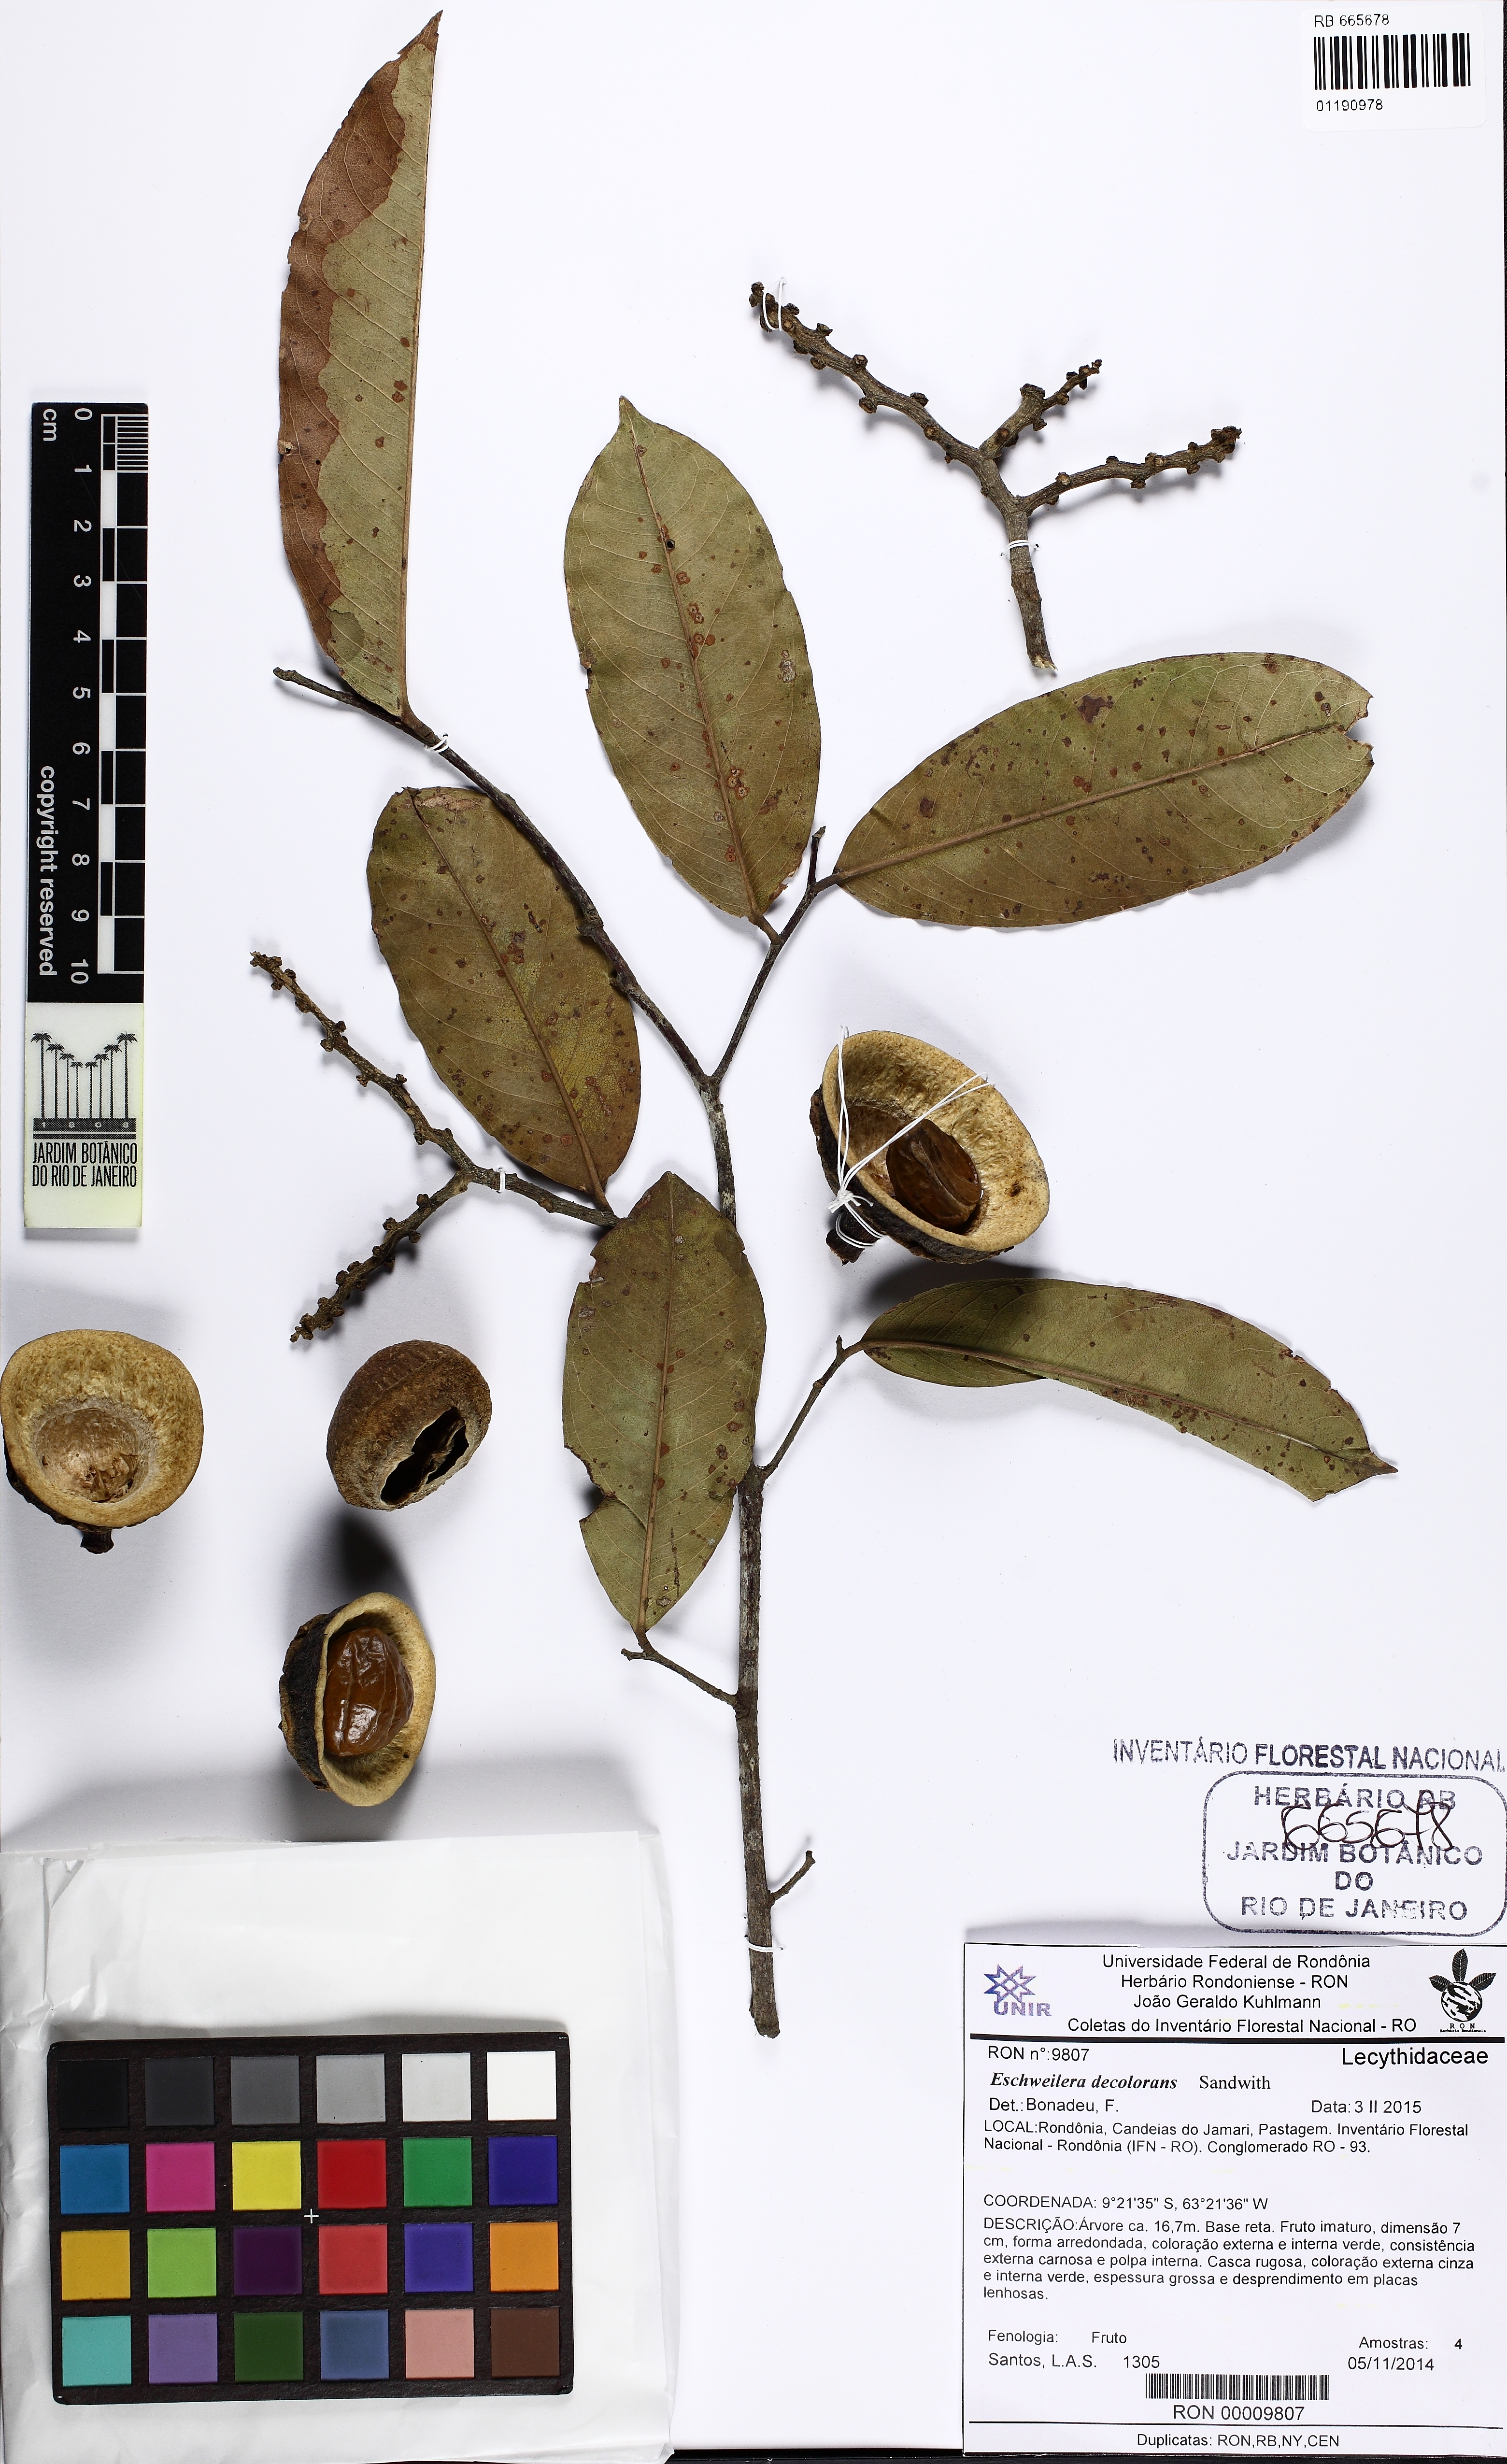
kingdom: Plantae
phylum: Tracheophyta
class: Magnoliopsida
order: Ericales
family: Lecythidaceae
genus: Eschweilera
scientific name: Eschweilera decolorans
